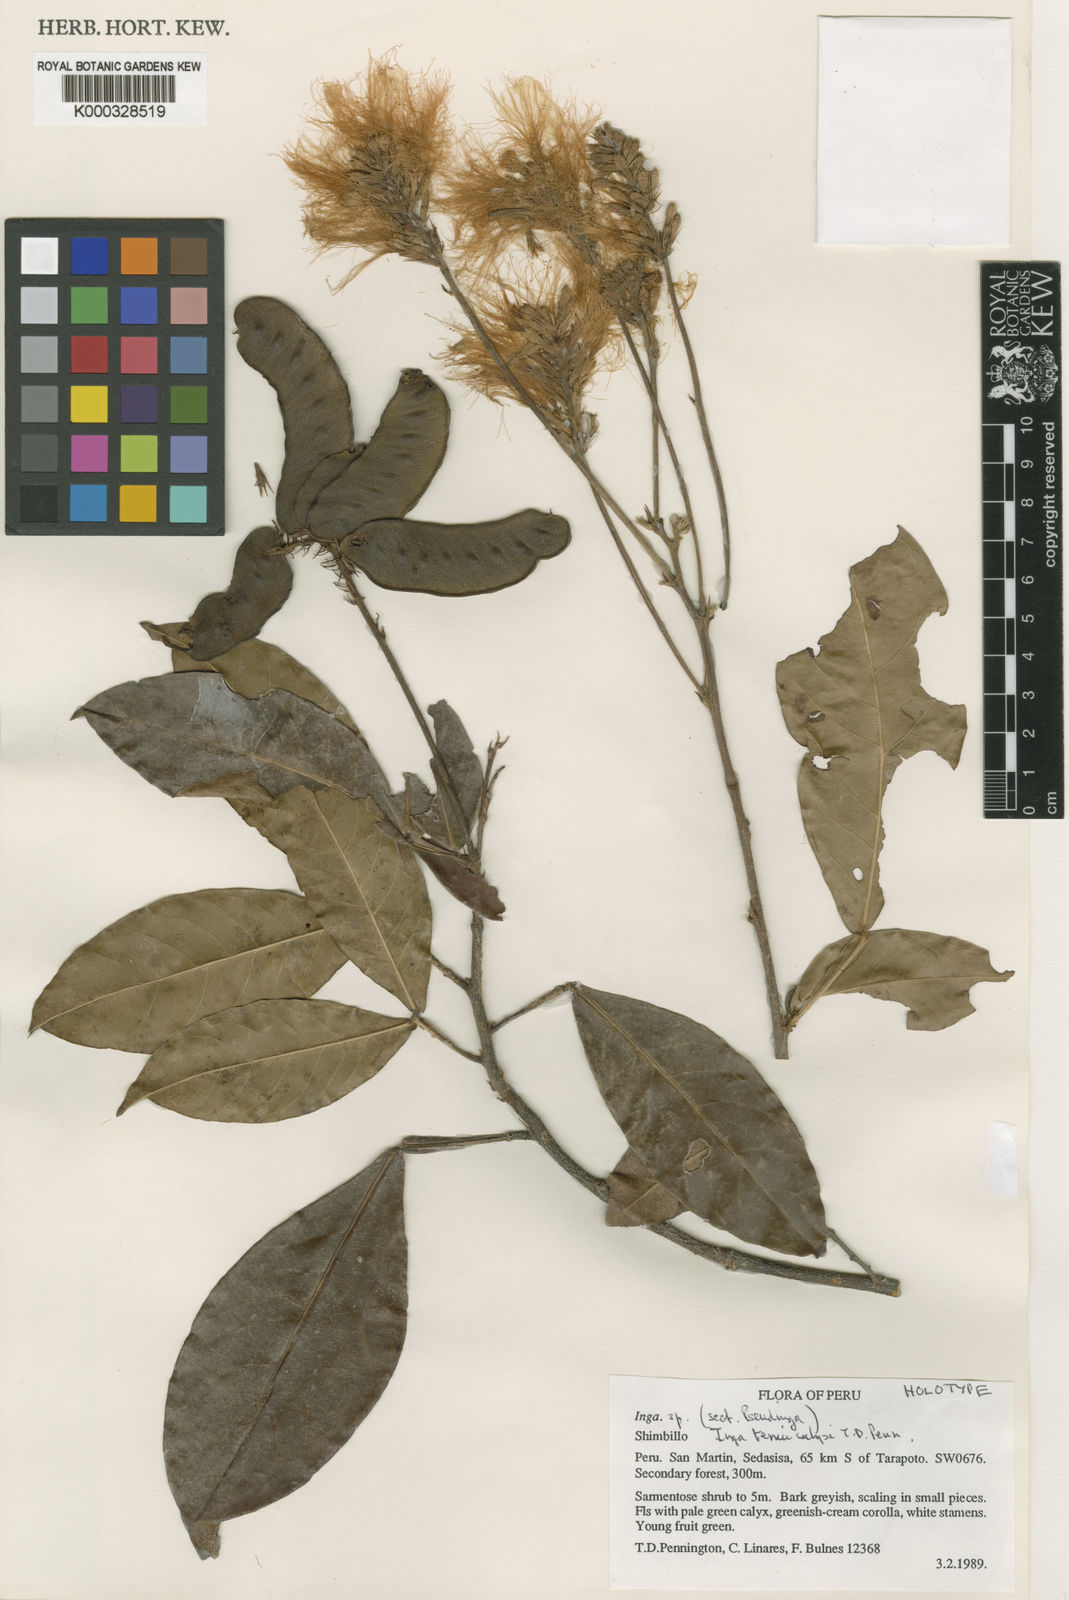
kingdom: Plantae
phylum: Tracheophyta
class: Magnoliopsida
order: Fabales
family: Fabaceae
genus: Inga
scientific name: Inga tenuicalyx
